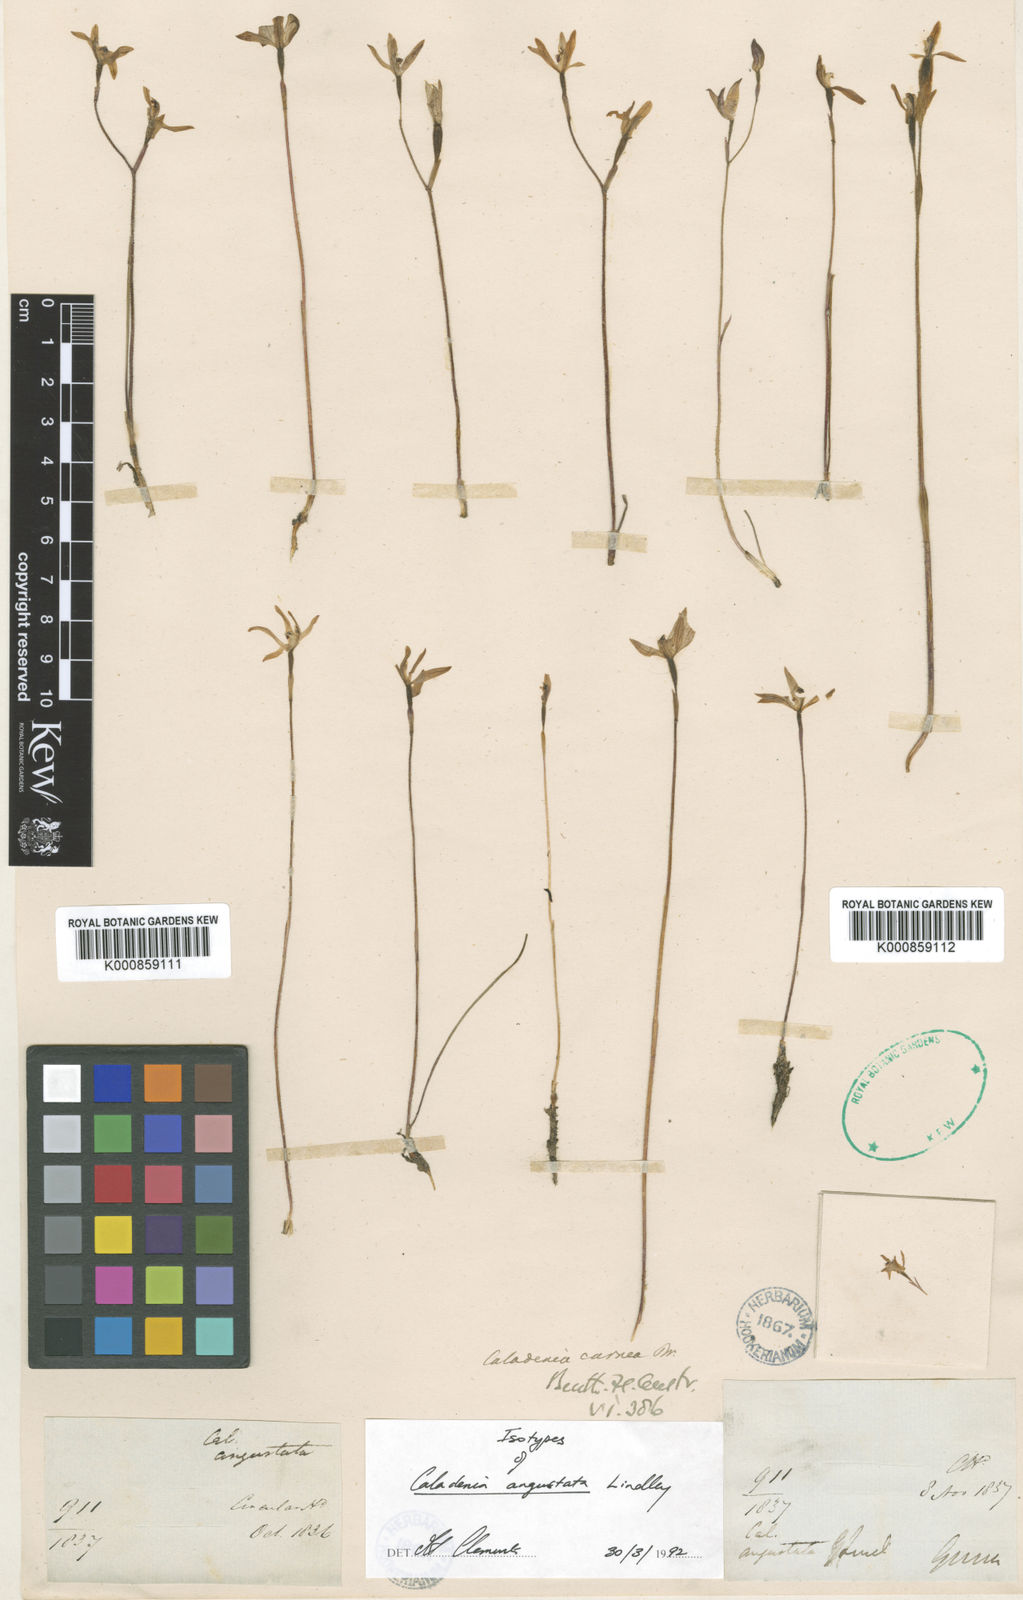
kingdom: Plantae
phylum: Tracheophyta
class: Liliopsida
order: Asparagales
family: Orchidaceae
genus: Caladenia
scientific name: Caladenia angustata
